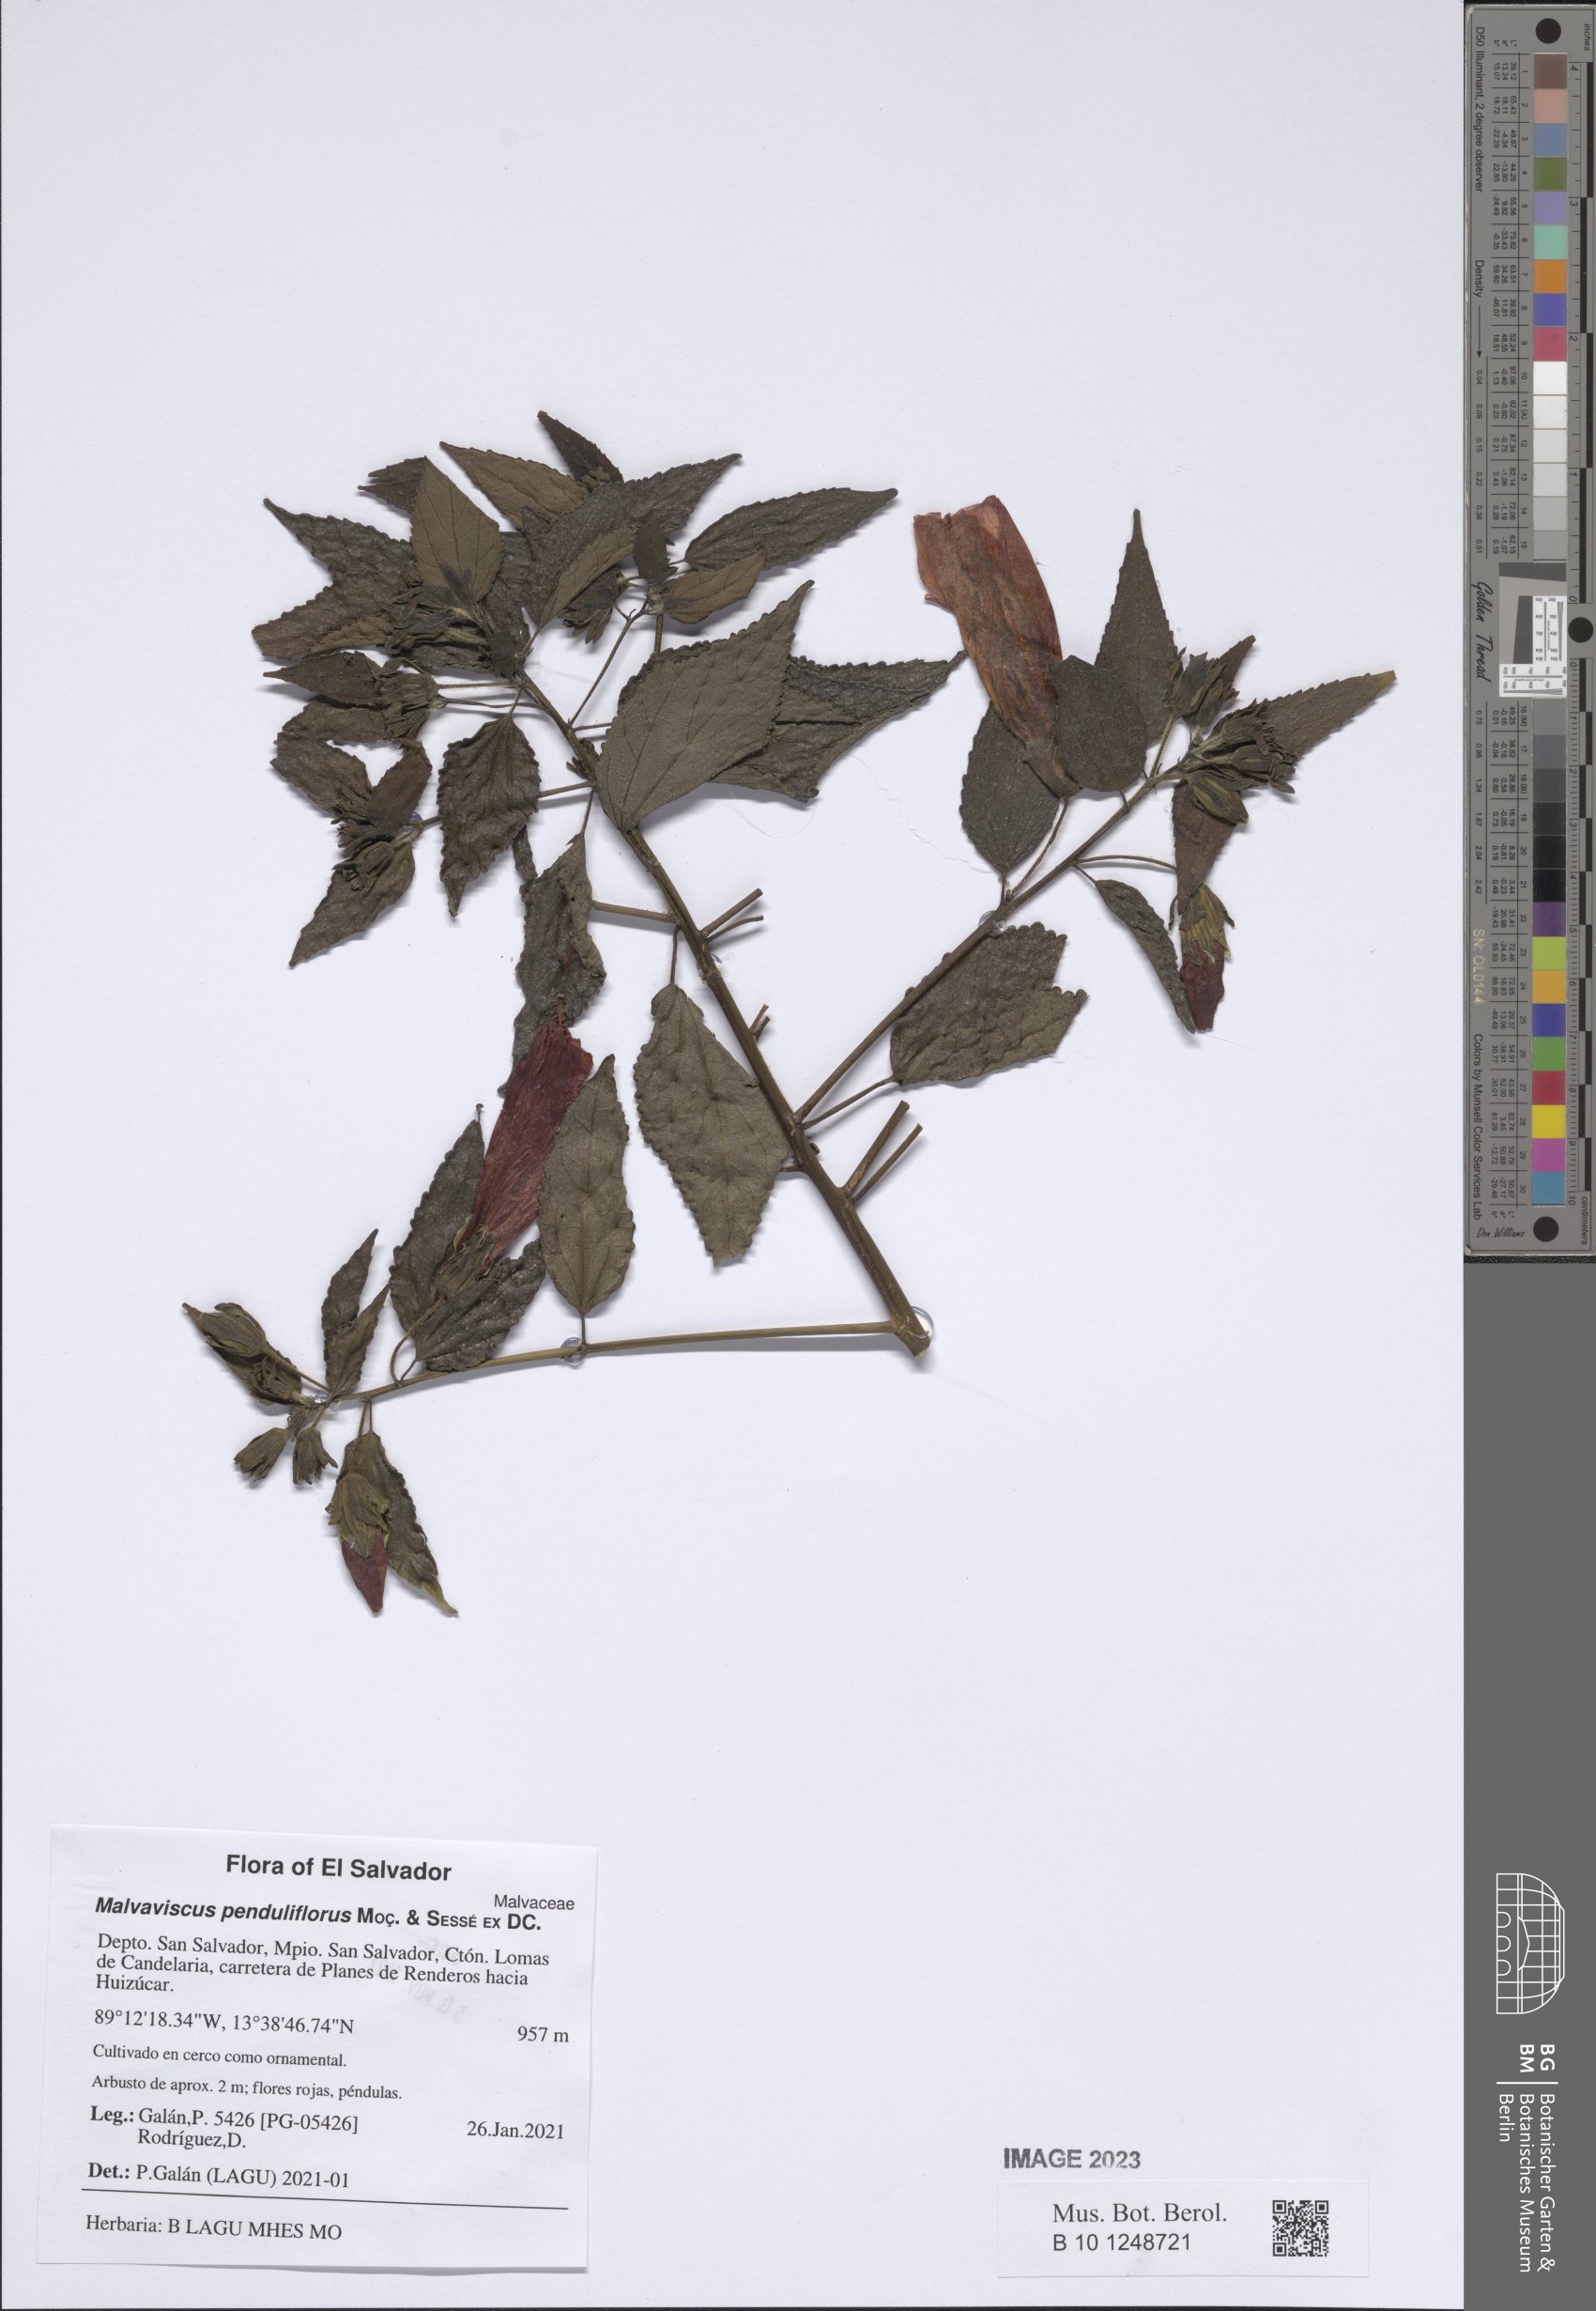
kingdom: Plantae
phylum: Tracheophyta
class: Magnoliopsida
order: Malvales
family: Malvaceae
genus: Malvaviscus
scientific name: Malvaviscus penduliflorus
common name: Mazapan
